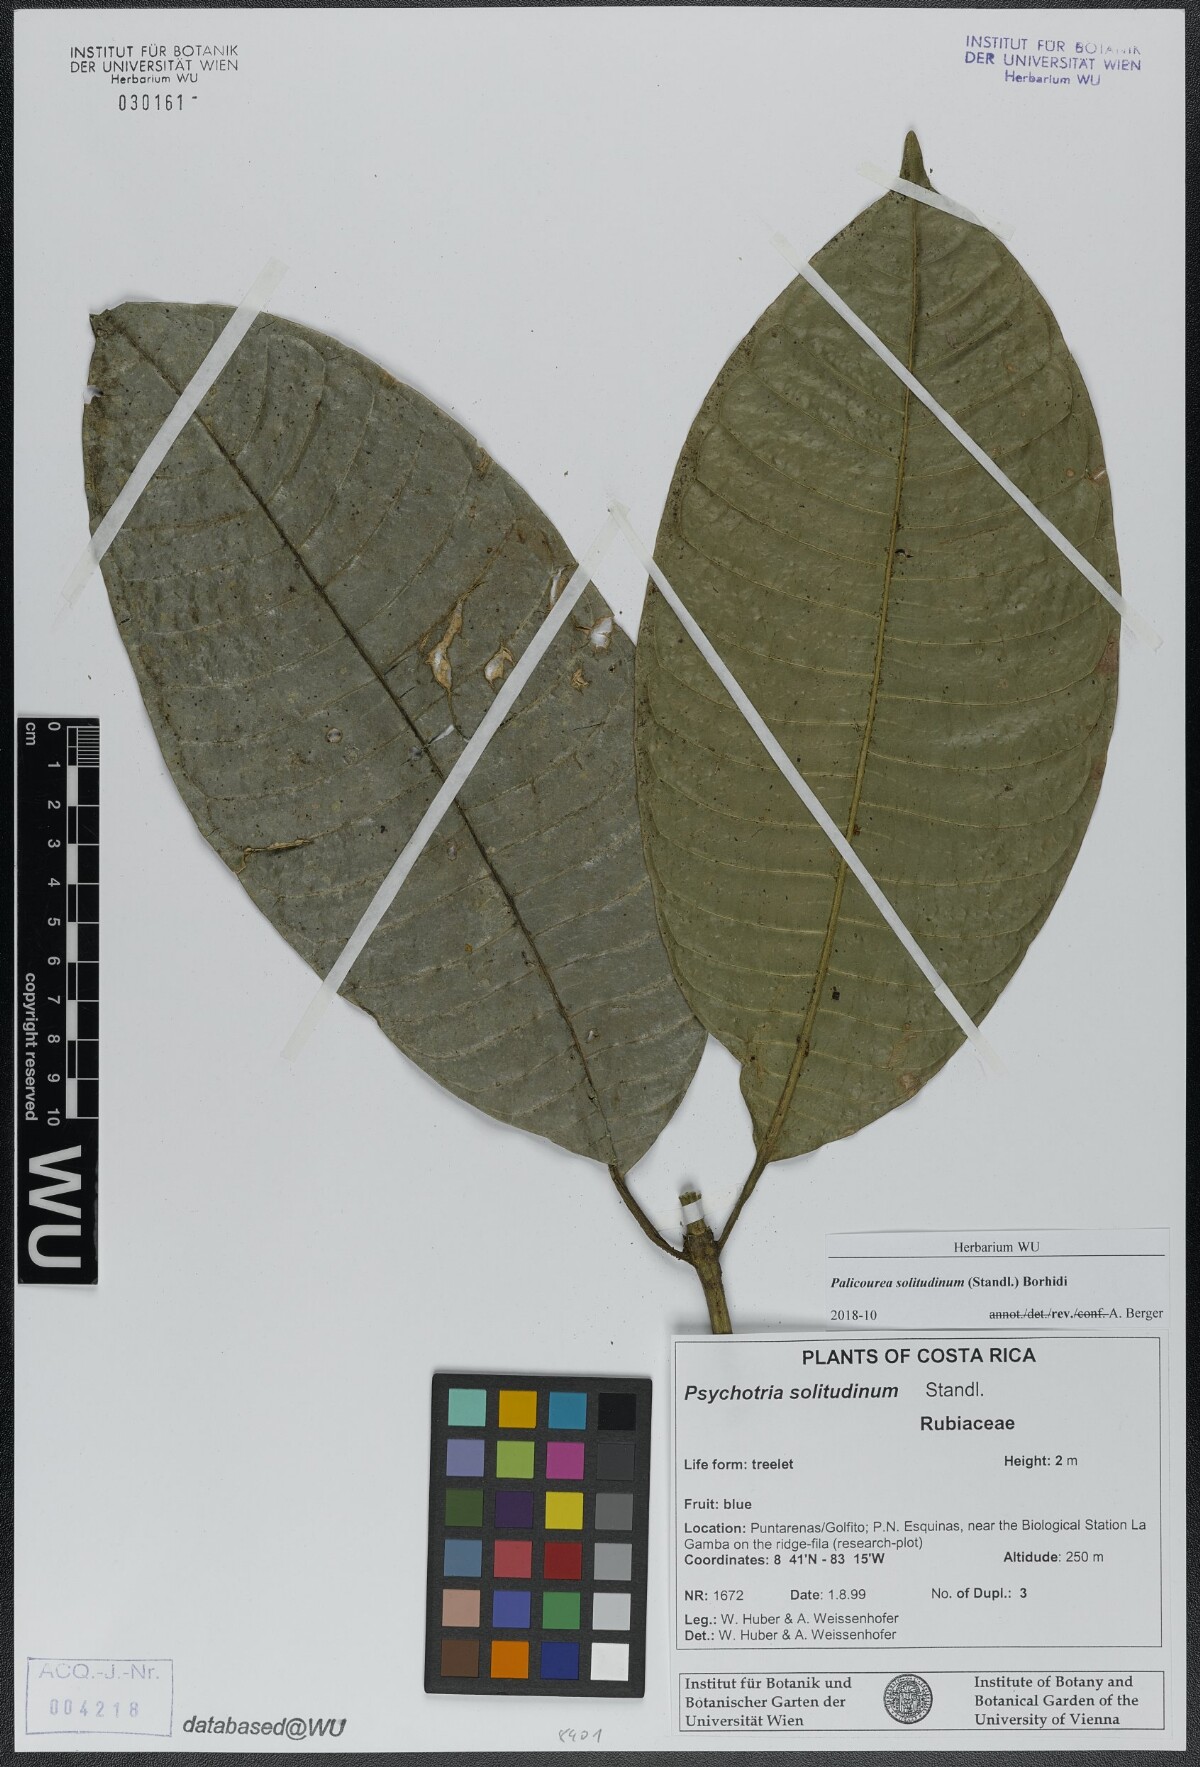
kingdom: Plantae
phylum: Tracheophyta
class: Magnoliopsida
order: Gentianales
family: Rubiaceae
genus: Palicourea
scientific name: Palicourea solitudinum
